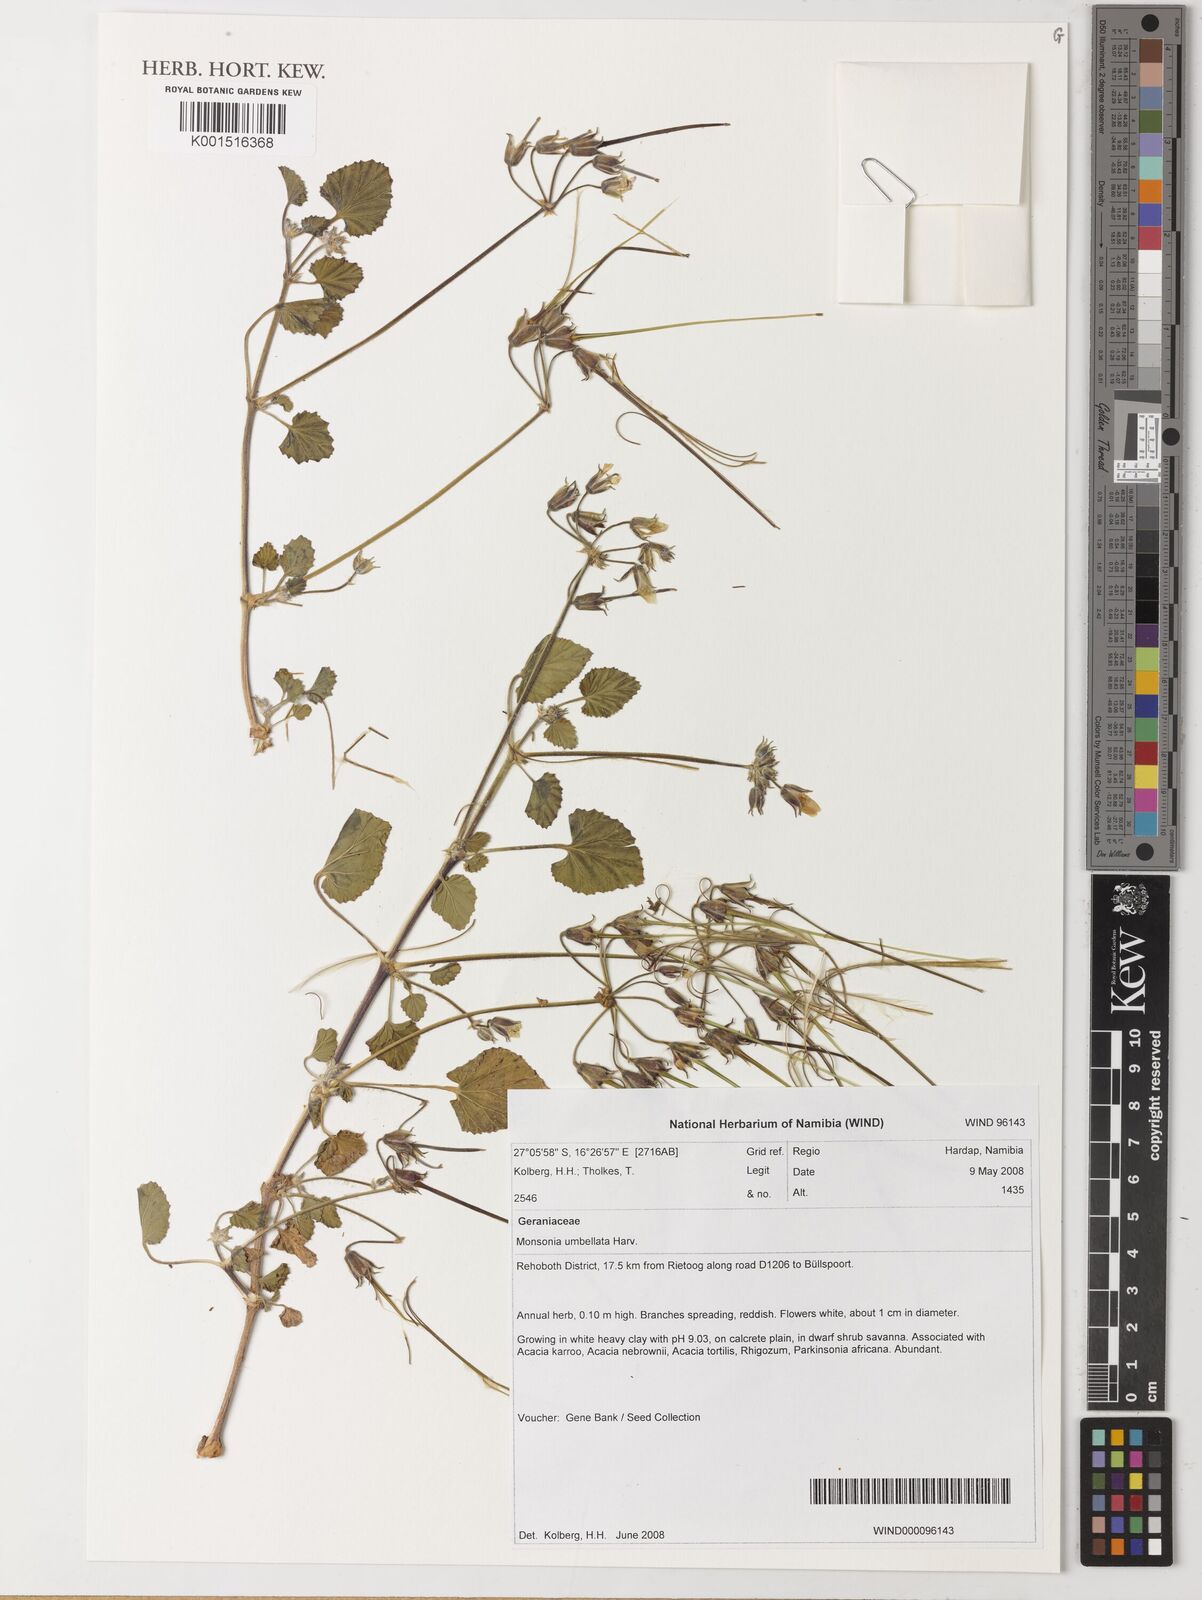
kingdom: Plantae
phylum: Tracheophyta
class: Magnoliopsida
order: Geraniales
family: Geraniaceae
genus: Monsonia
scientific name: Monsonia umbellata
